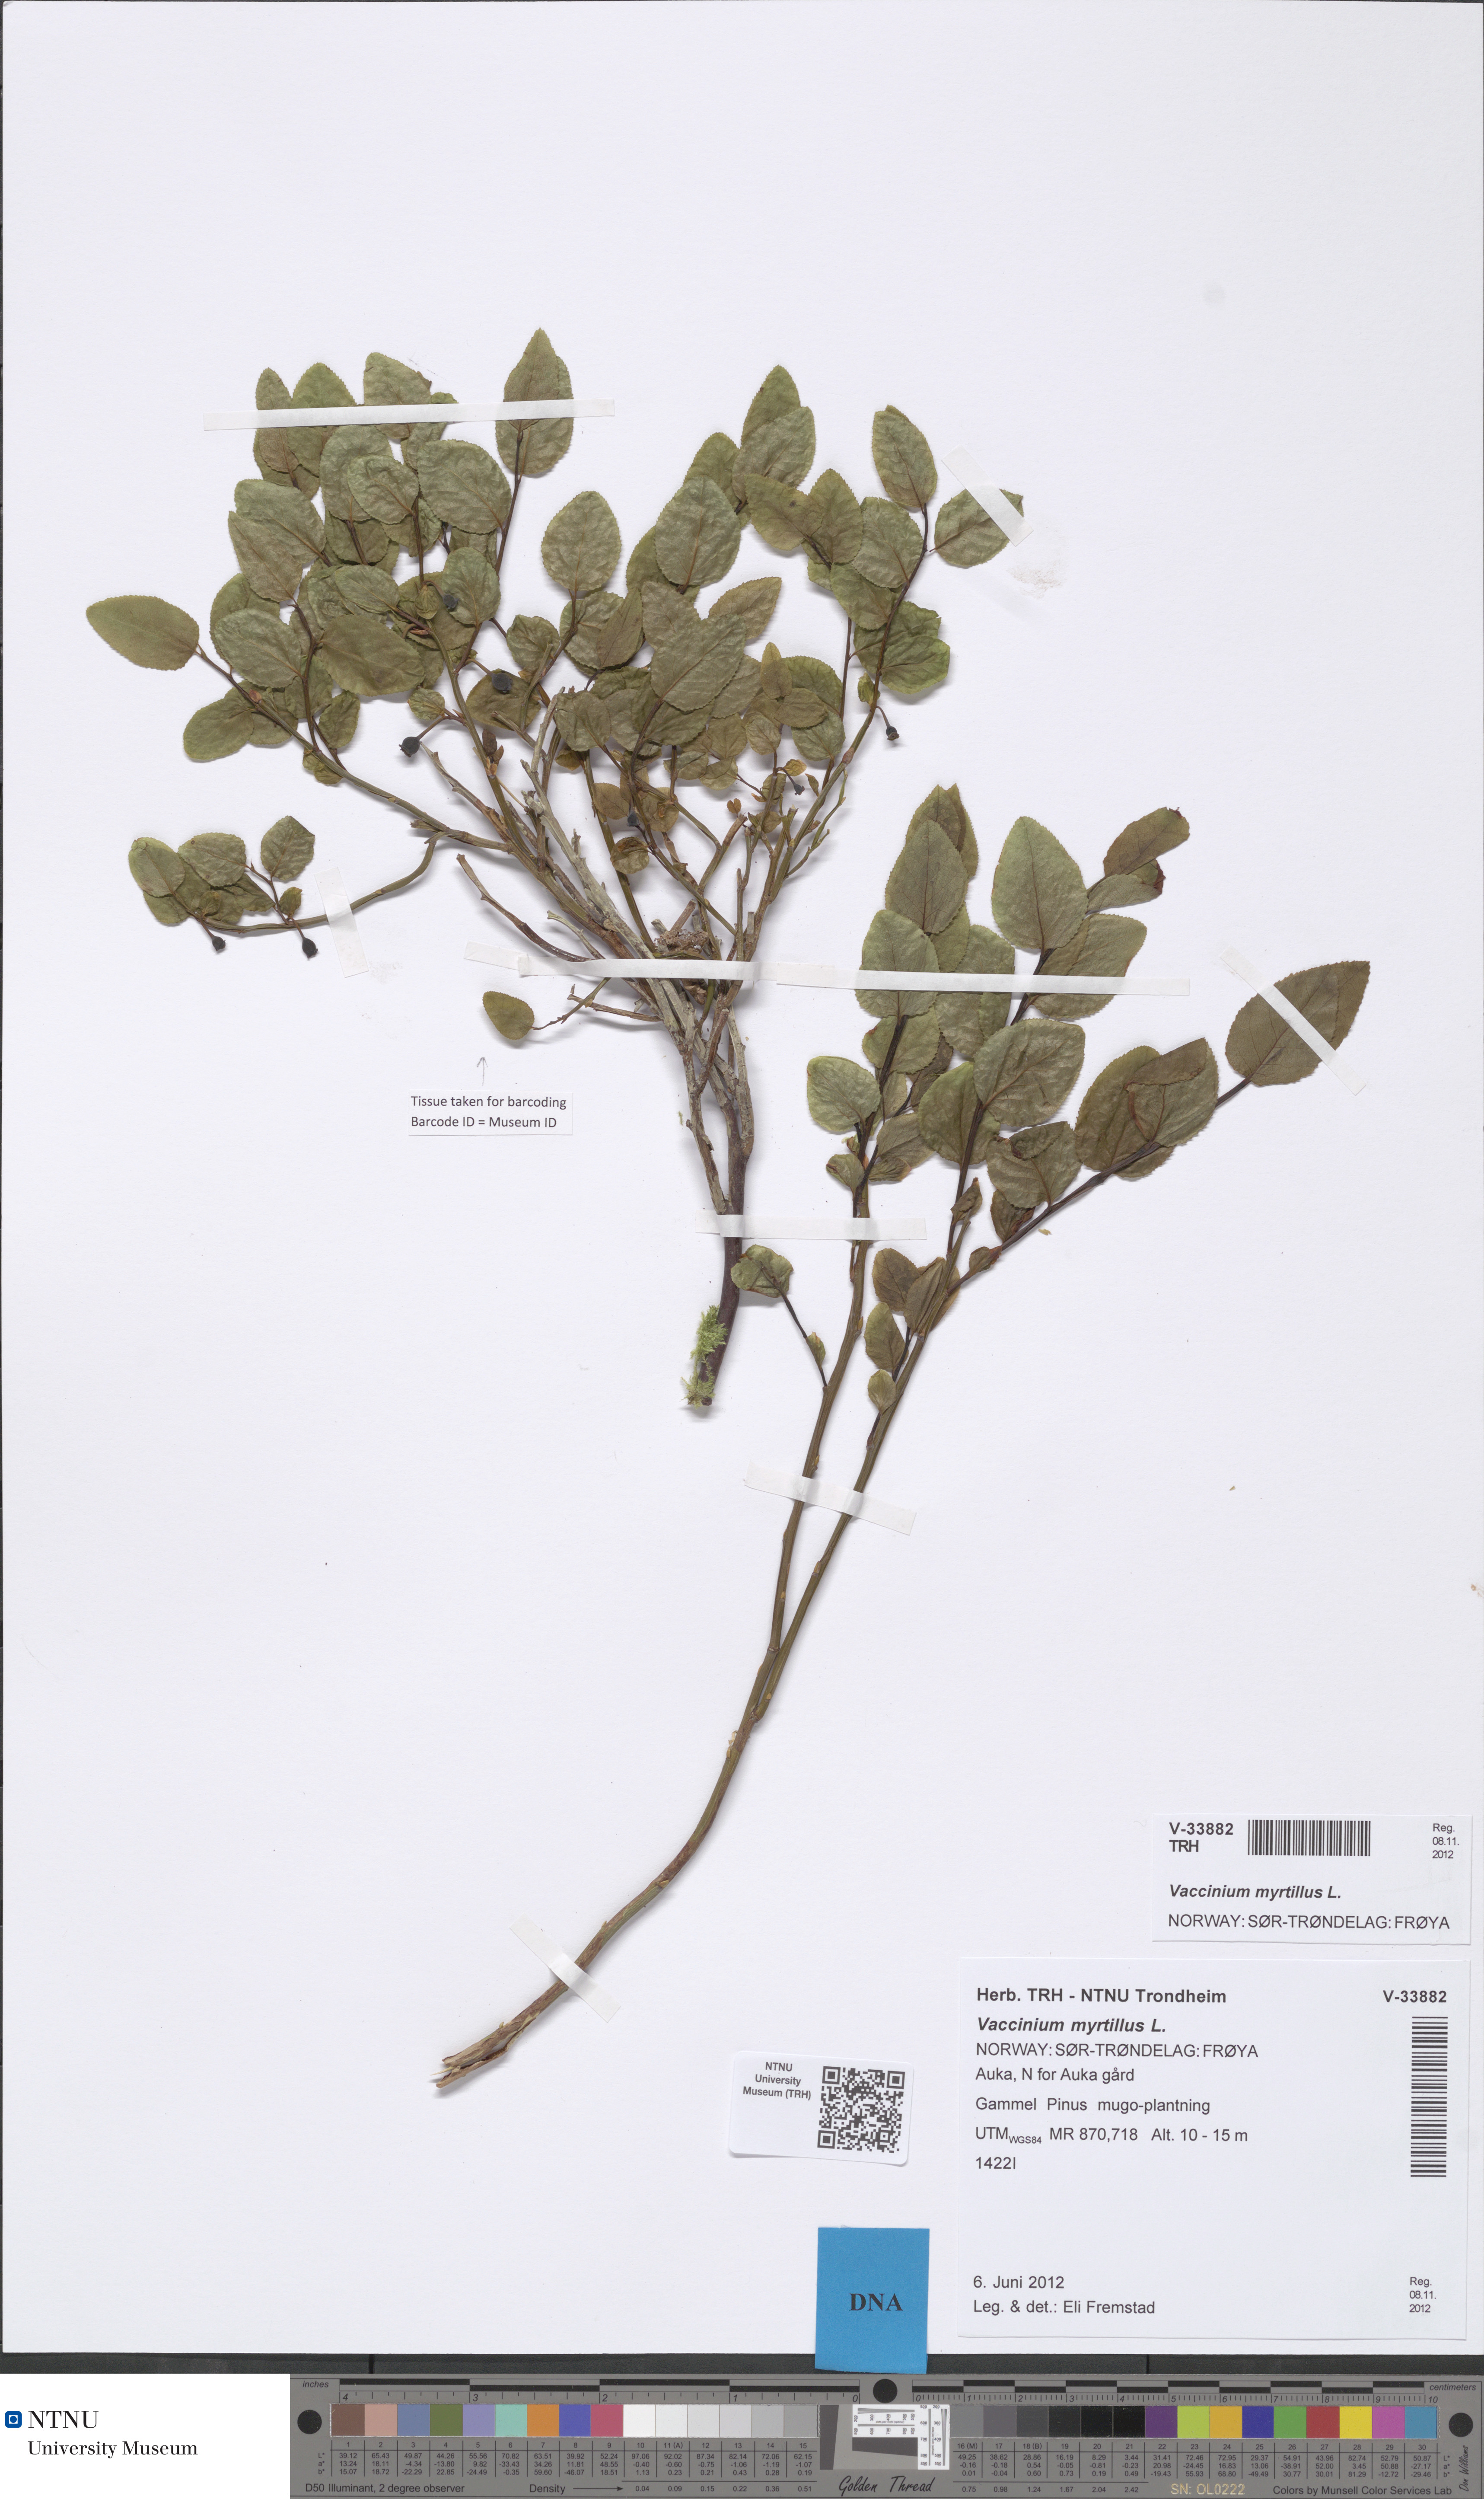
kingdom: Plantae
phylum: Tracheophyta
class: Magnoliopsida
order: Ericales
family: Ericaceae
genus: Vaccinium
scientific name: Vaccinium myrtillus
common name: Bilberry
